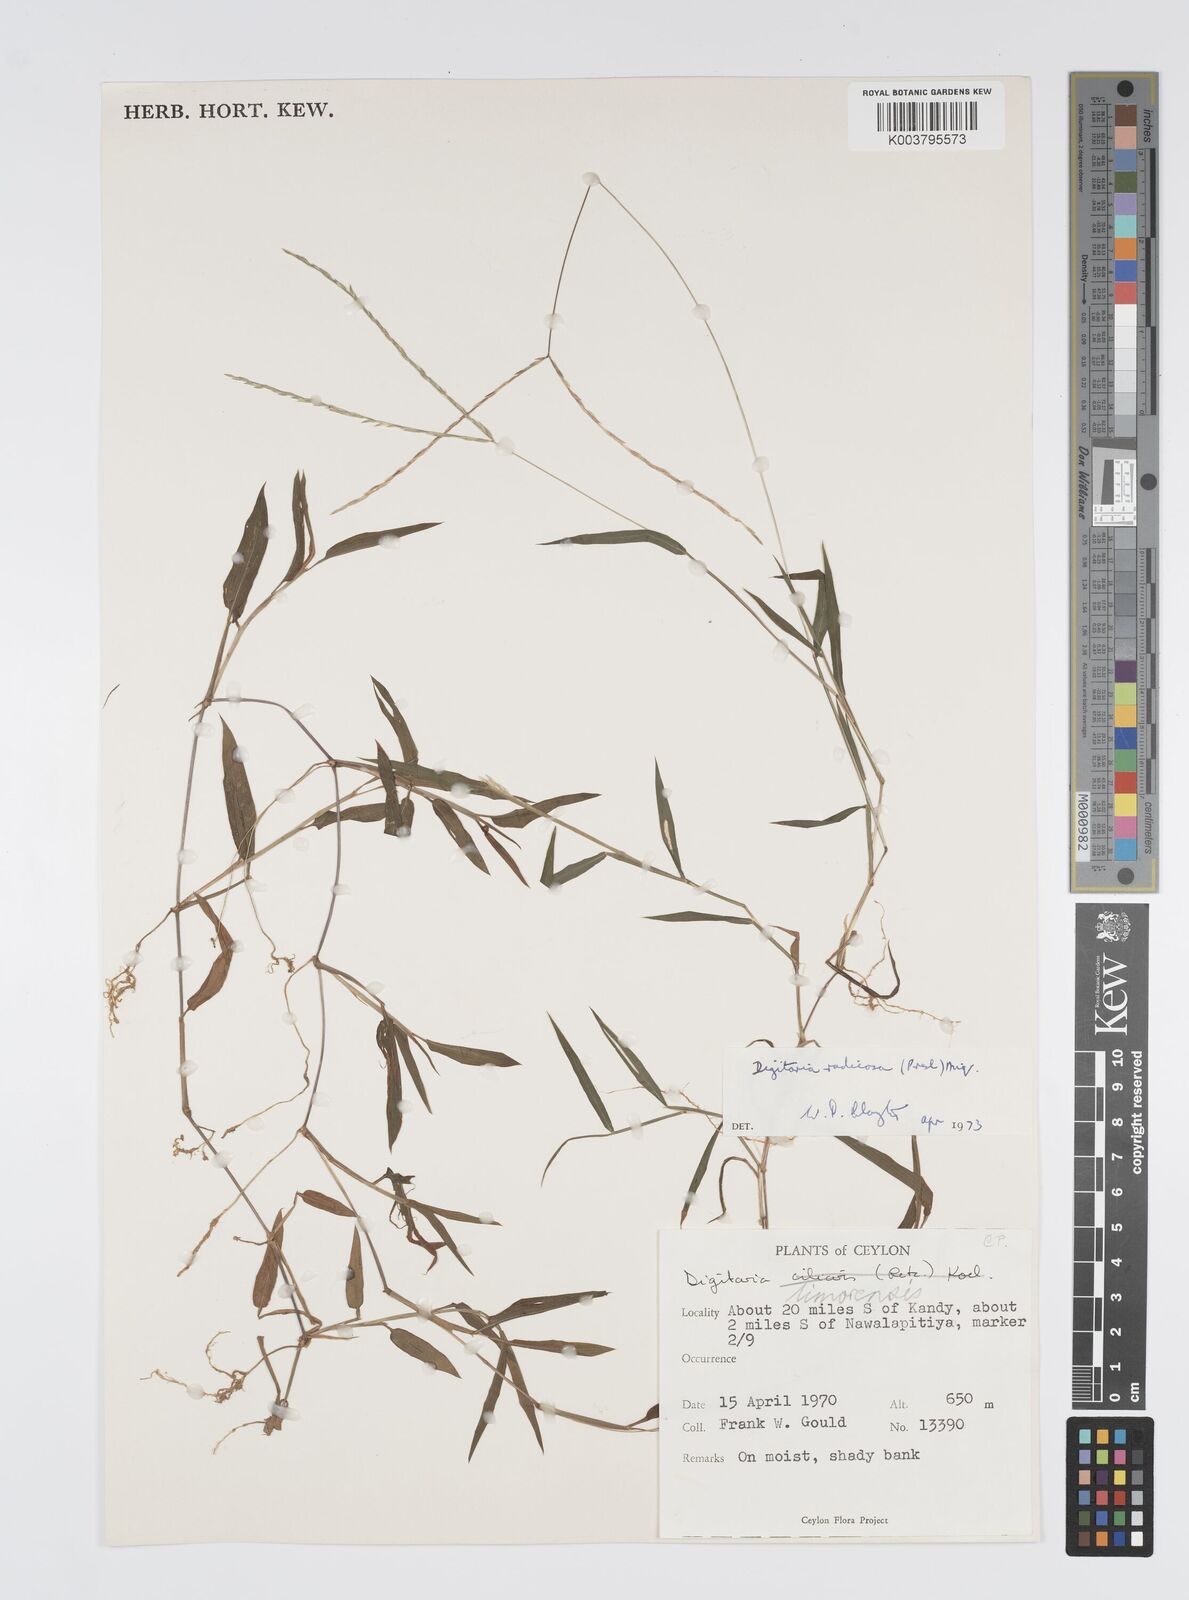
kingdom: Plantae
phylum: Tracheophyta
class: Liliopsida
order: Poales
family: Poaceae
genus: Digitaria
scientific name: Digitaria radicosa
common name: Trailing crabgrass
